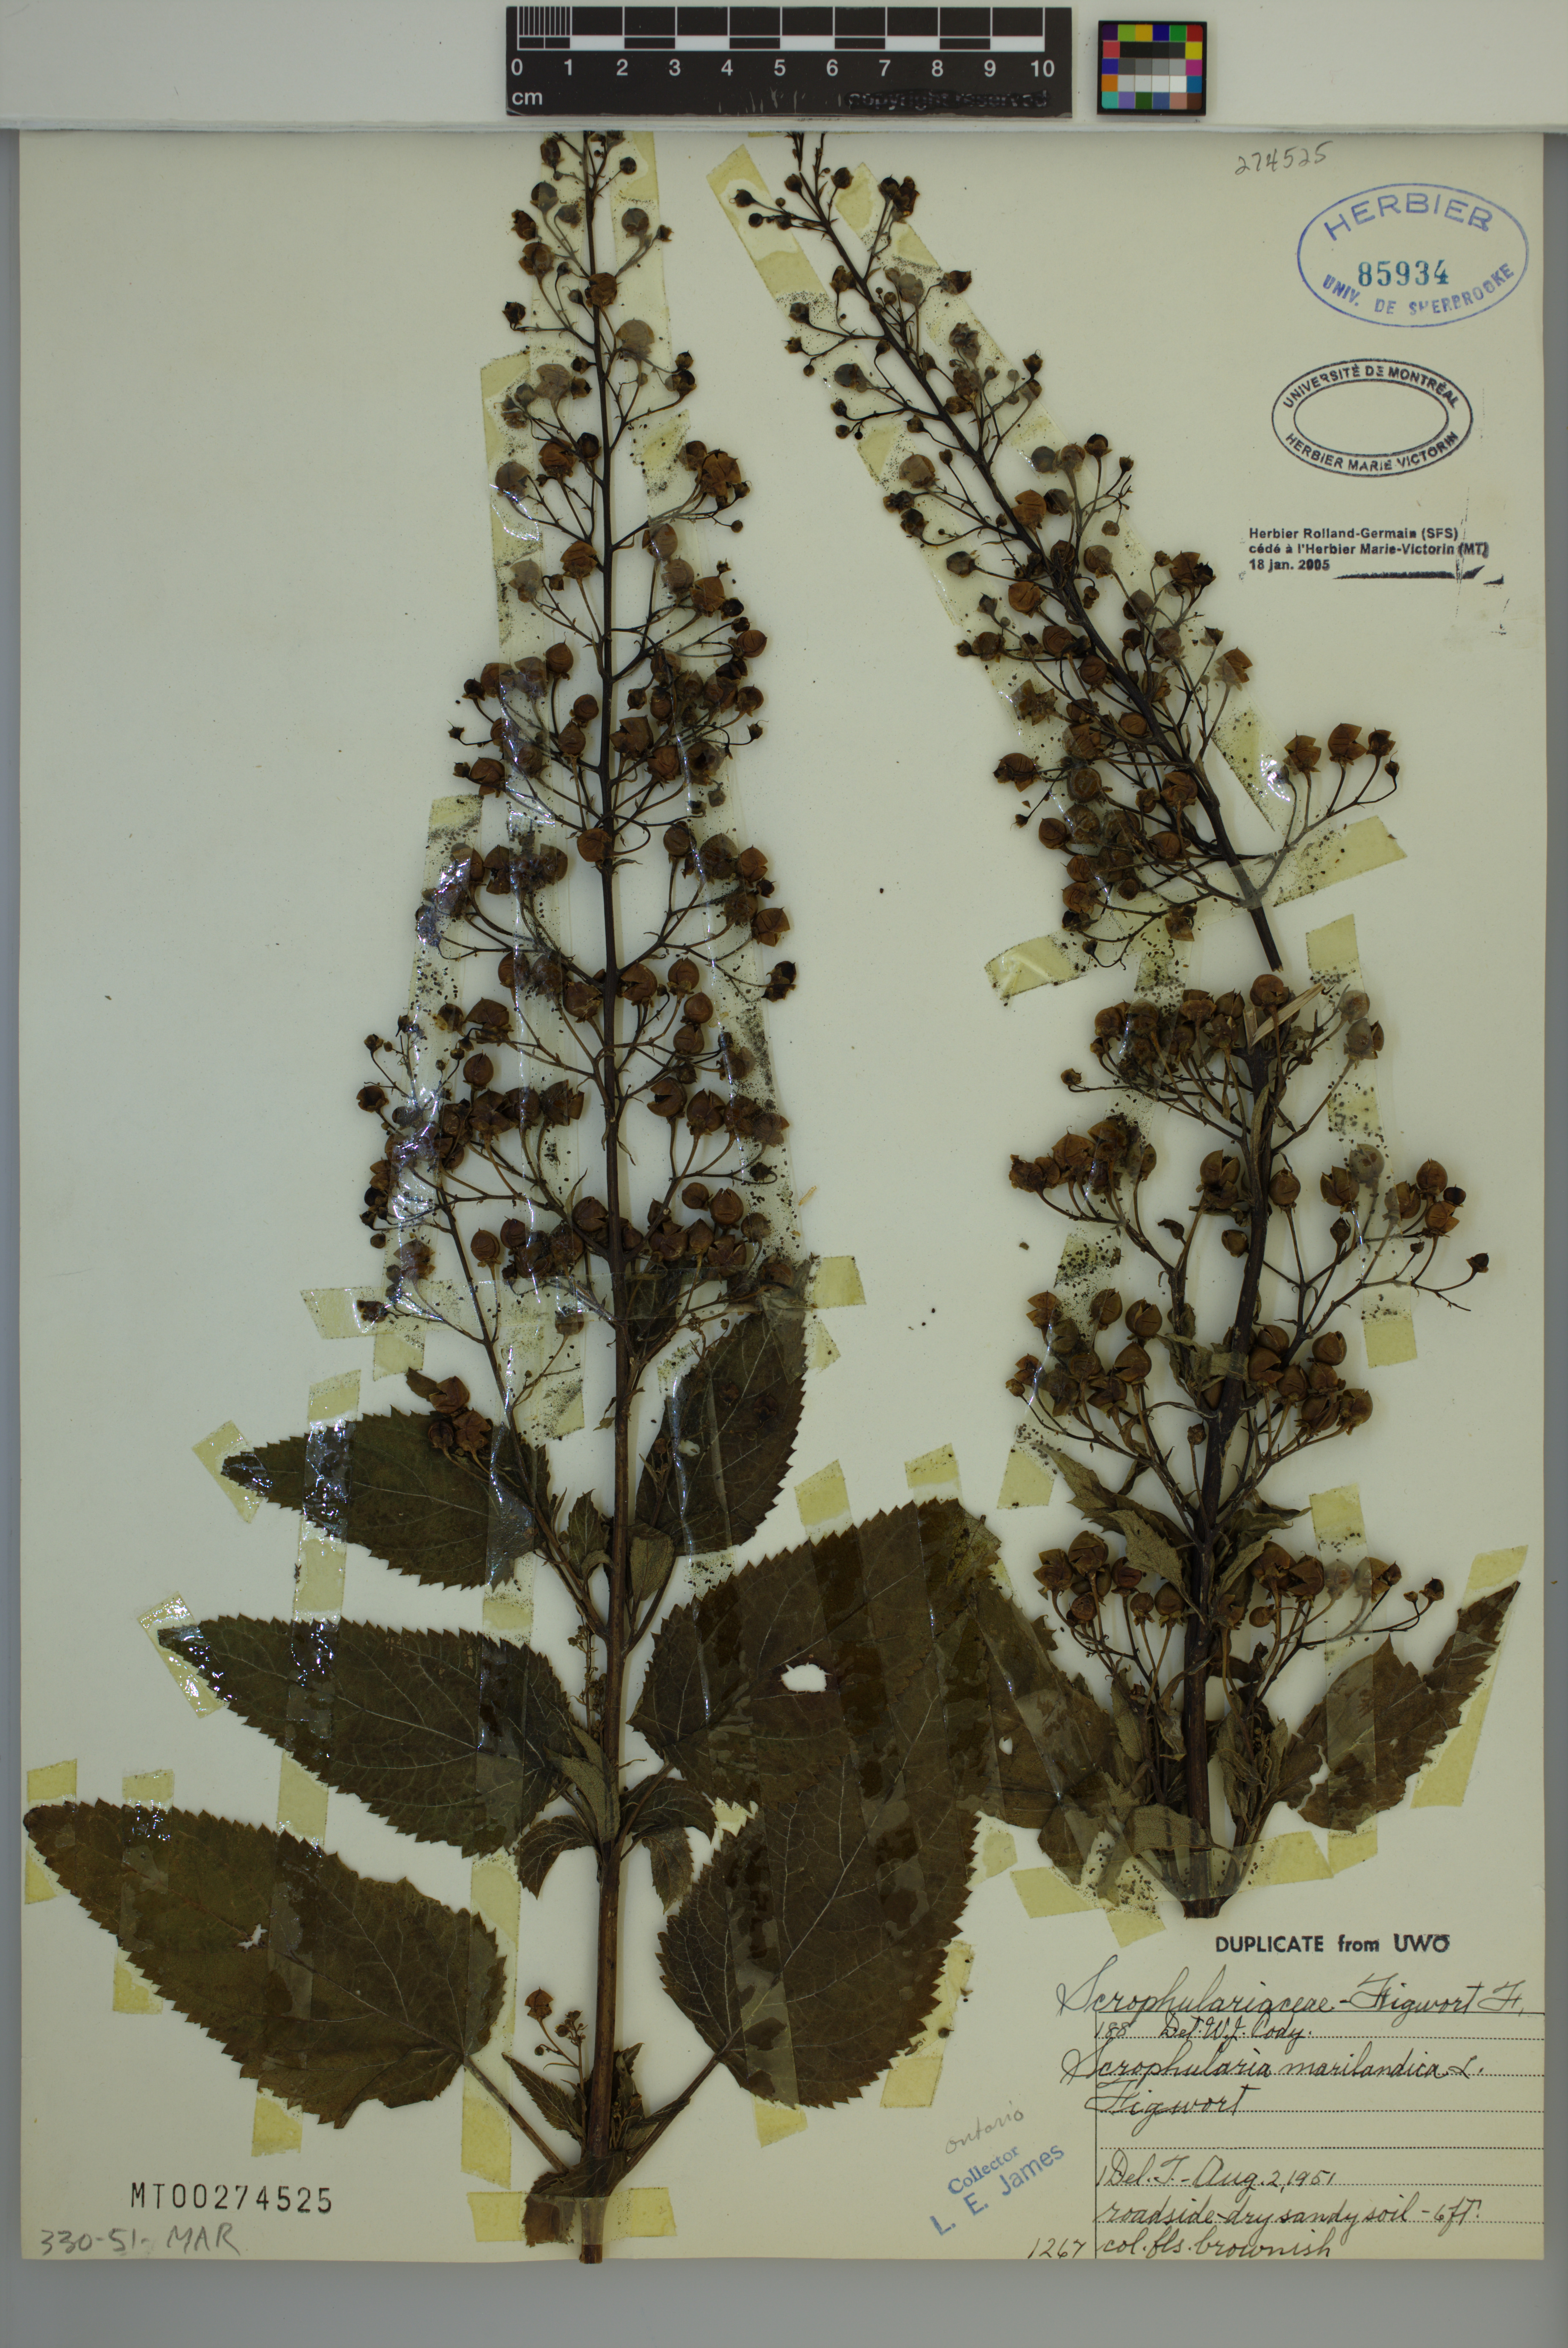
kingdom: Plantae
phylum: Tracheophyta
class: Magnoliopsida
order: Lamiales
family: Scrophulariaceae
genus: Scrophularia
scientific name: Scrophularia marilandica
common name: Eastern figwort
